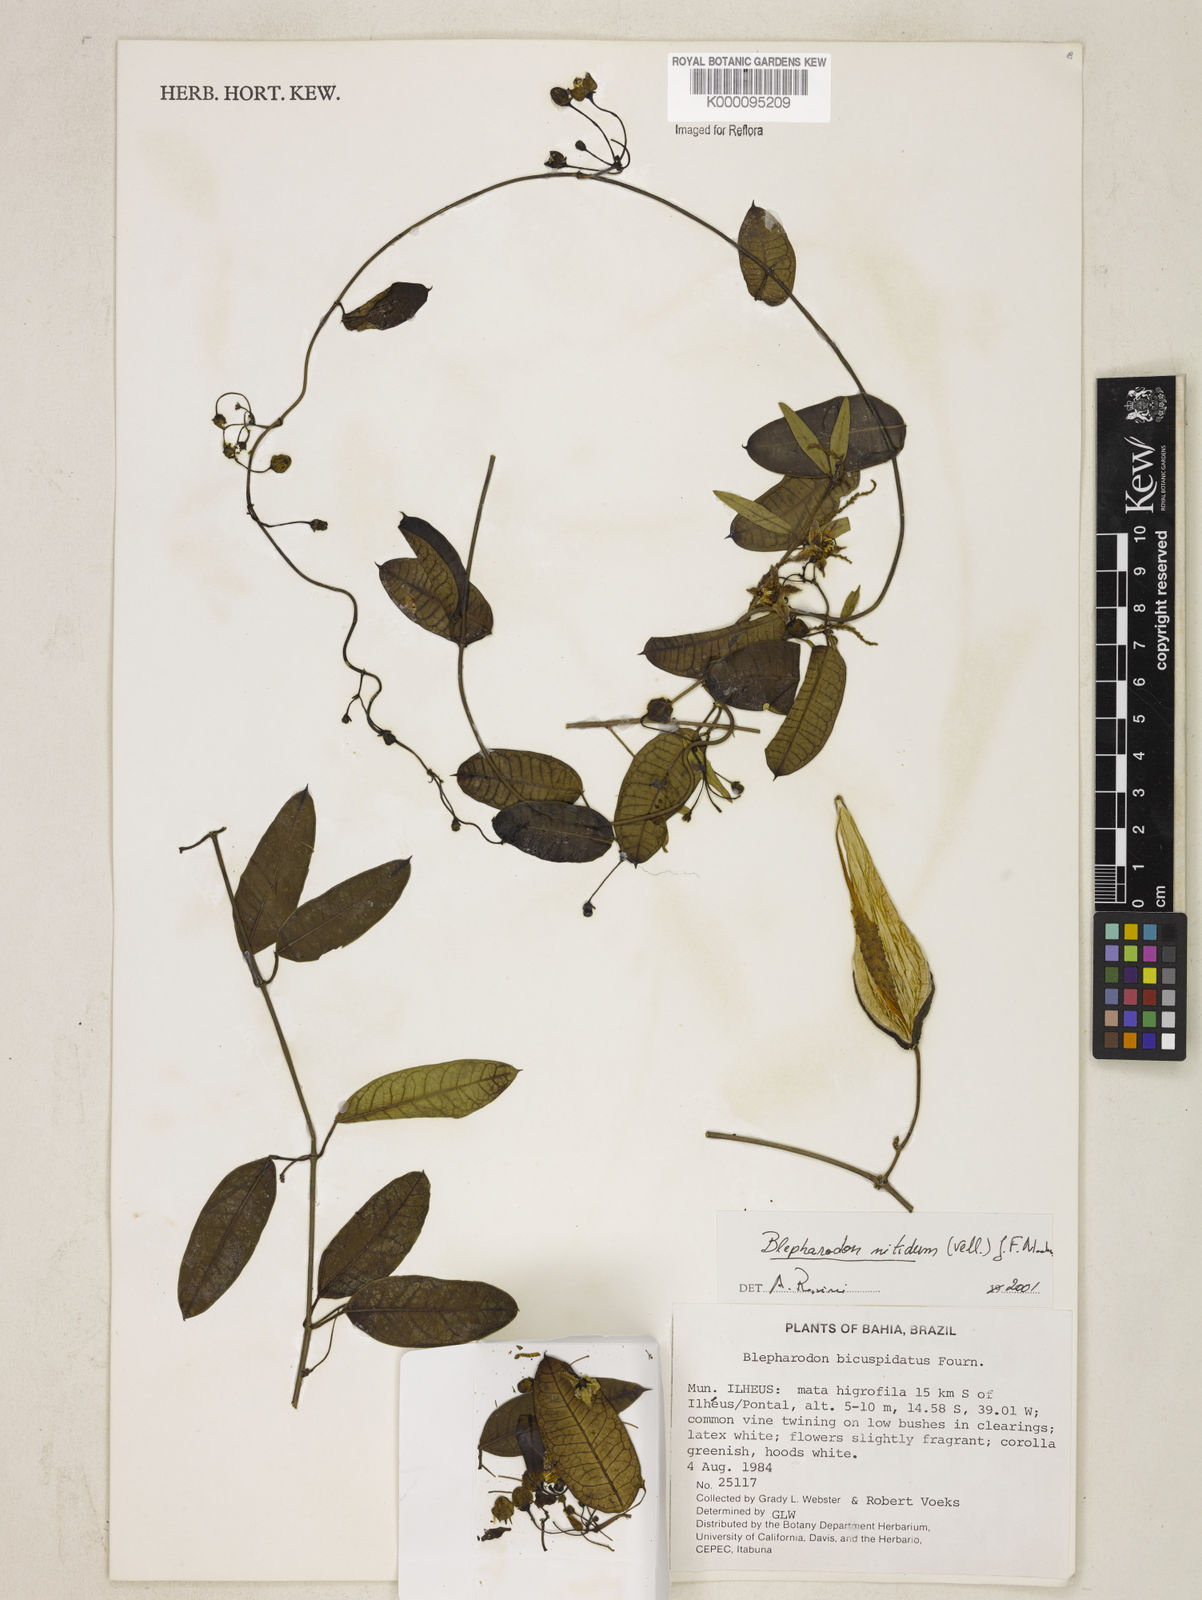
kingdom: Plantae
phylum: Tracheophyta
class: Magnoliopsida
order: Gentianales
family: Apocynaceae
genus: Blepharodon
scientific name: Blepharodon pictum
